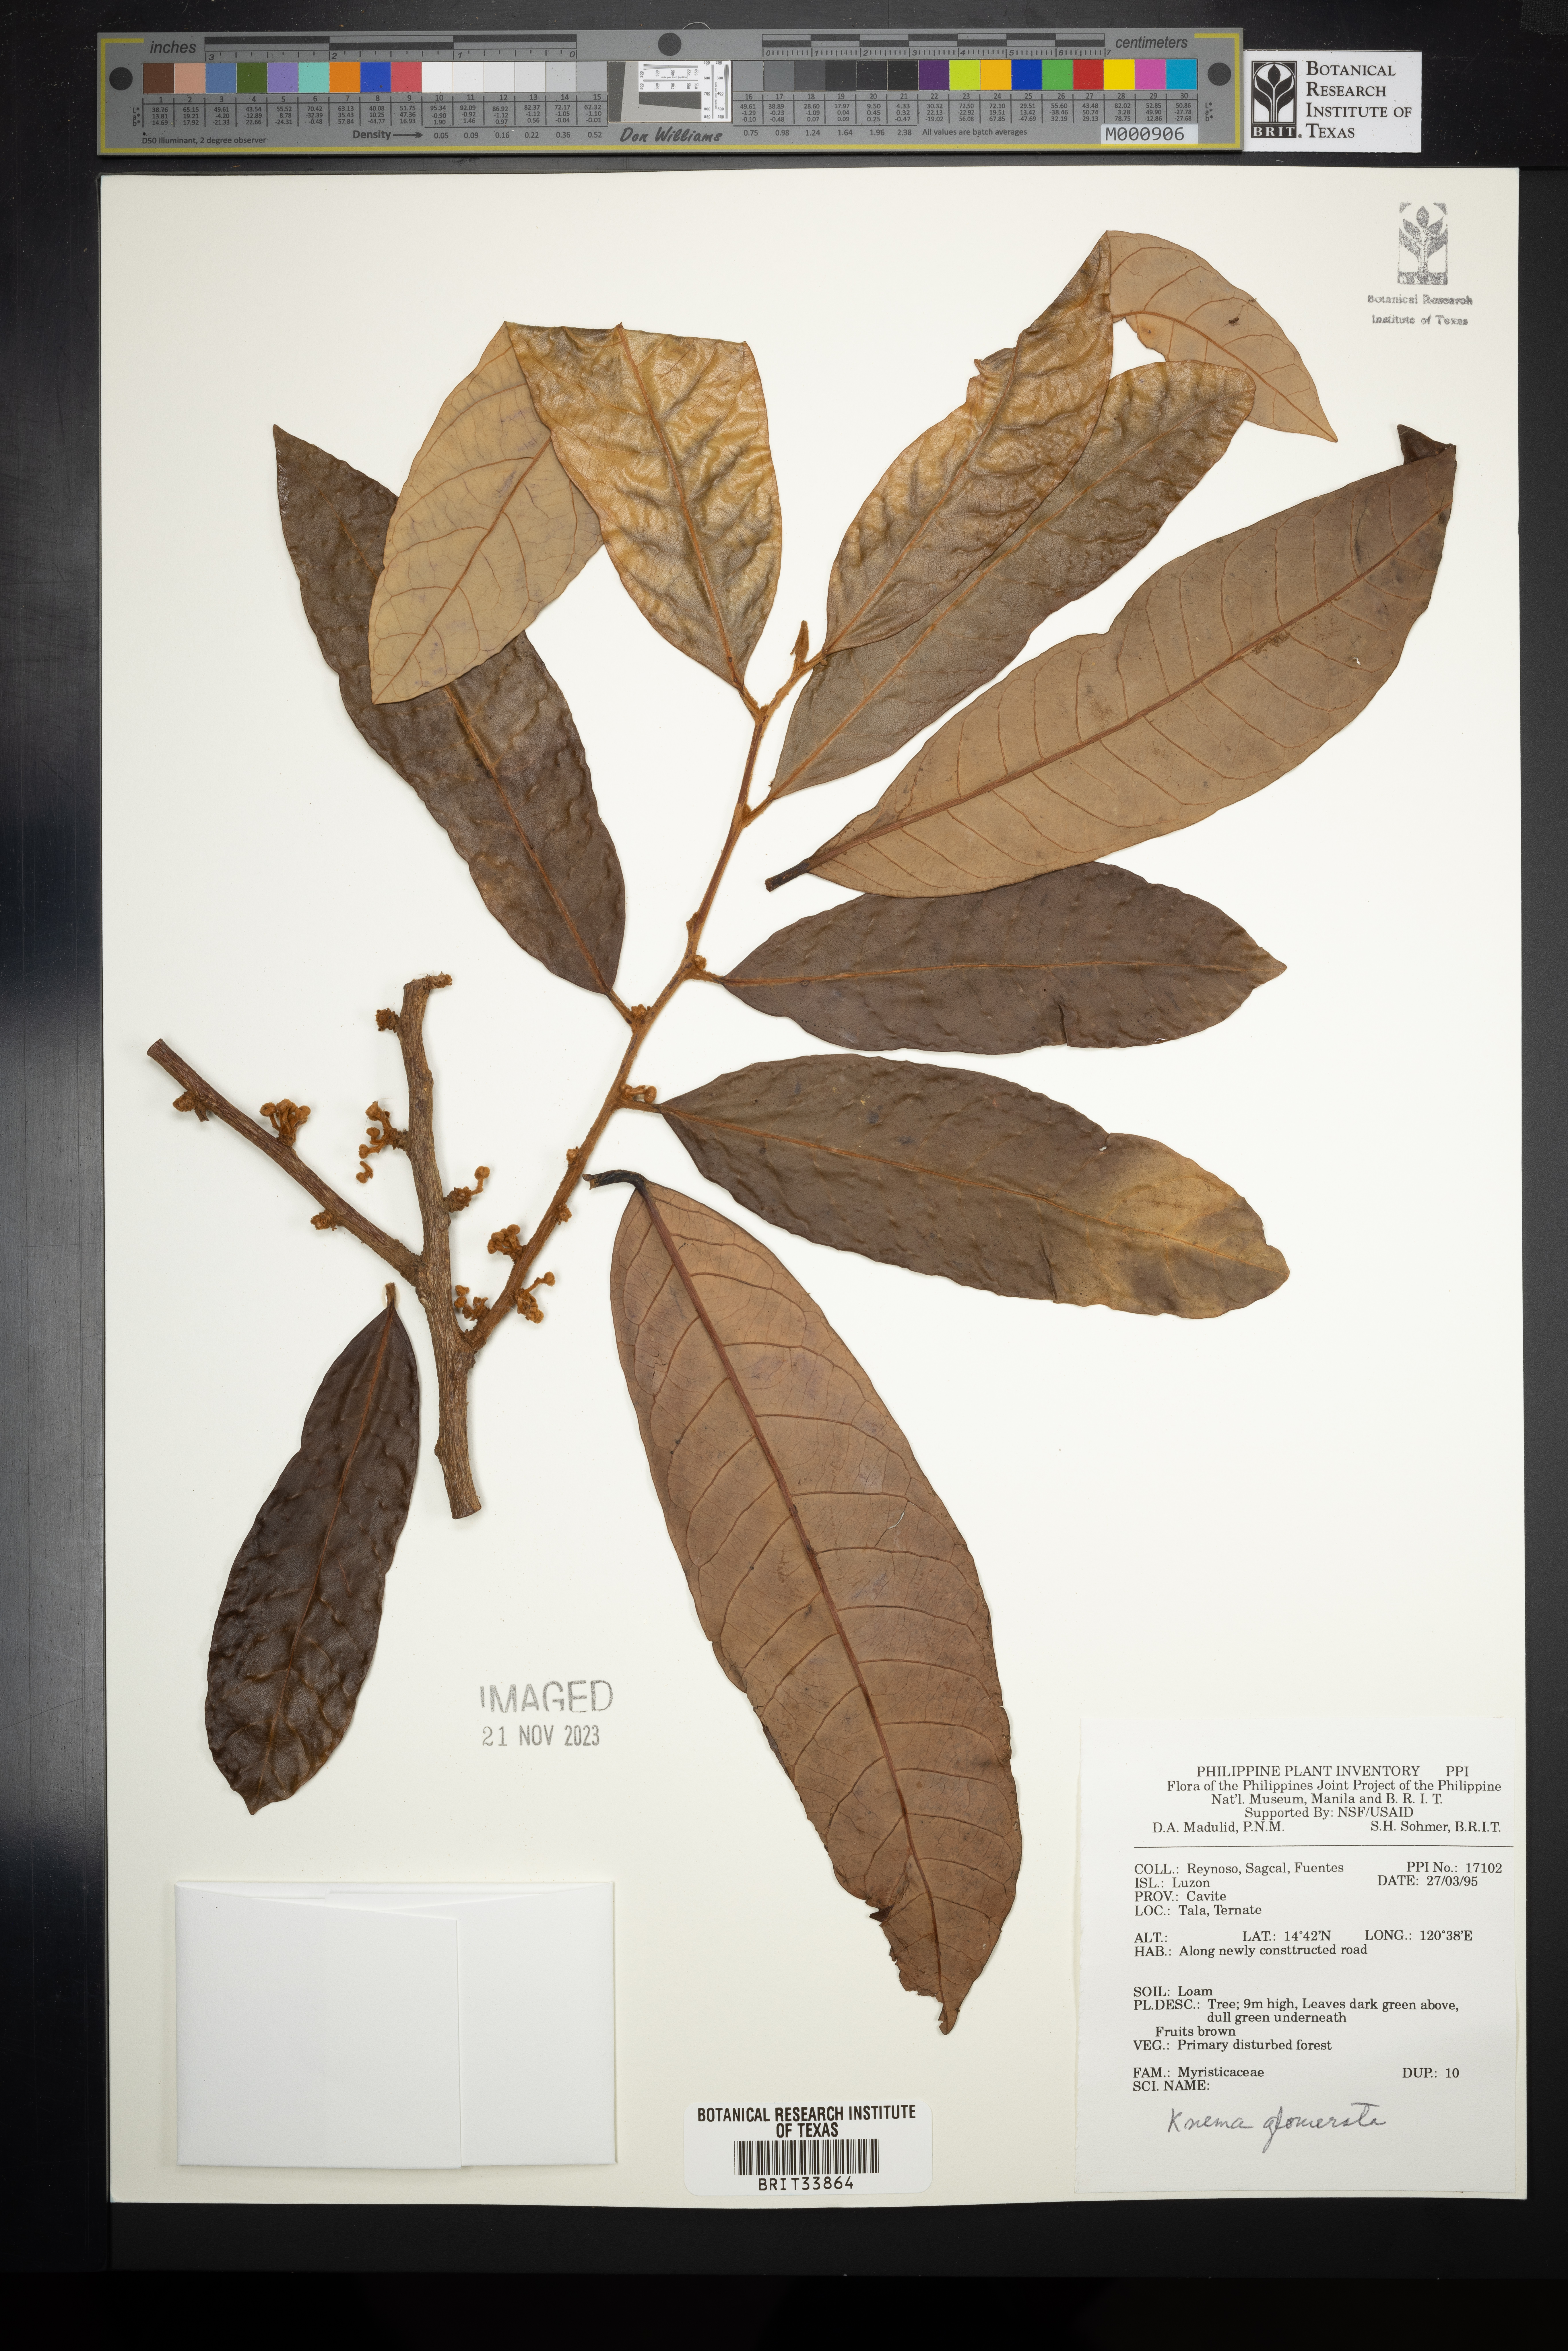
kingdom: Plantae
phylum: Tracheophyta
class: Magnoliopsida
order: Magnoliales
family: Myristicaceae
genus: Knema
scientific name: Knema glomerata
